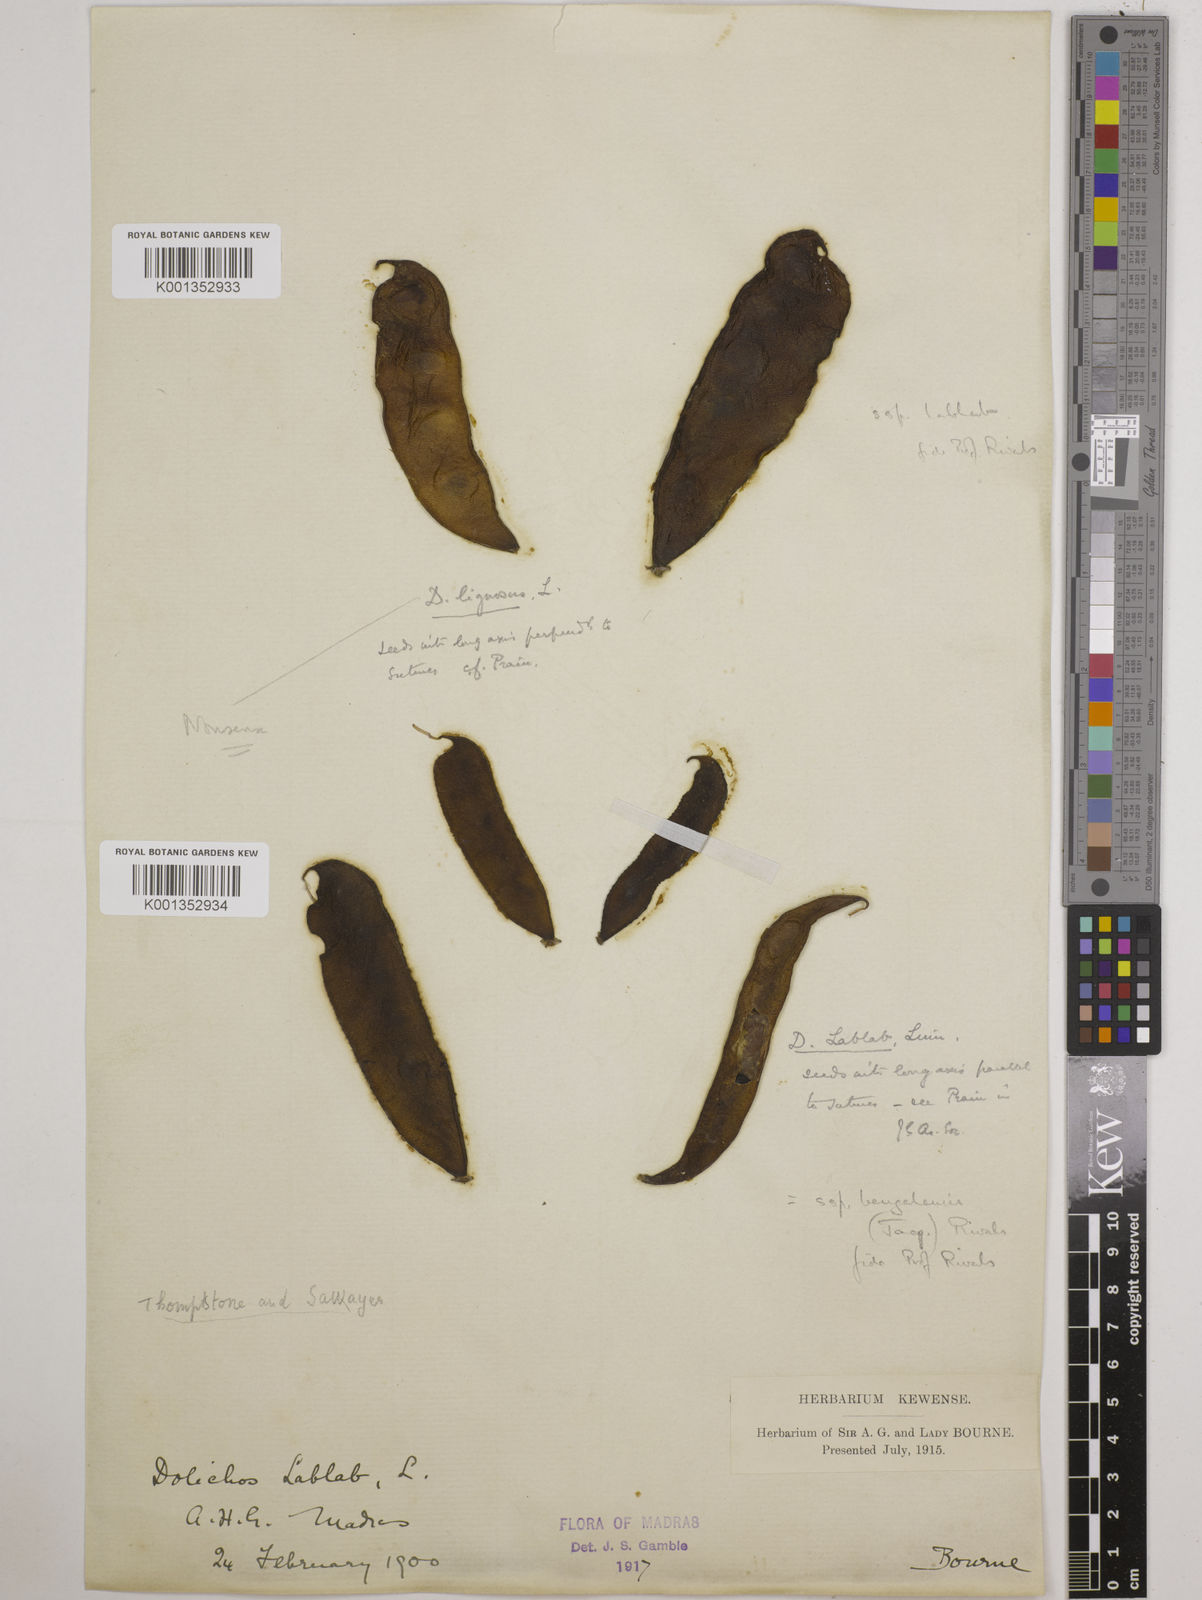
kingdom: Plantae
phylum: Tracheophyta
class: Magnoliopsida
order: Fabales
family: Fabaceae
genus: Lablab
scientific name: Lablab purpureus
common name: Lablab-bean
